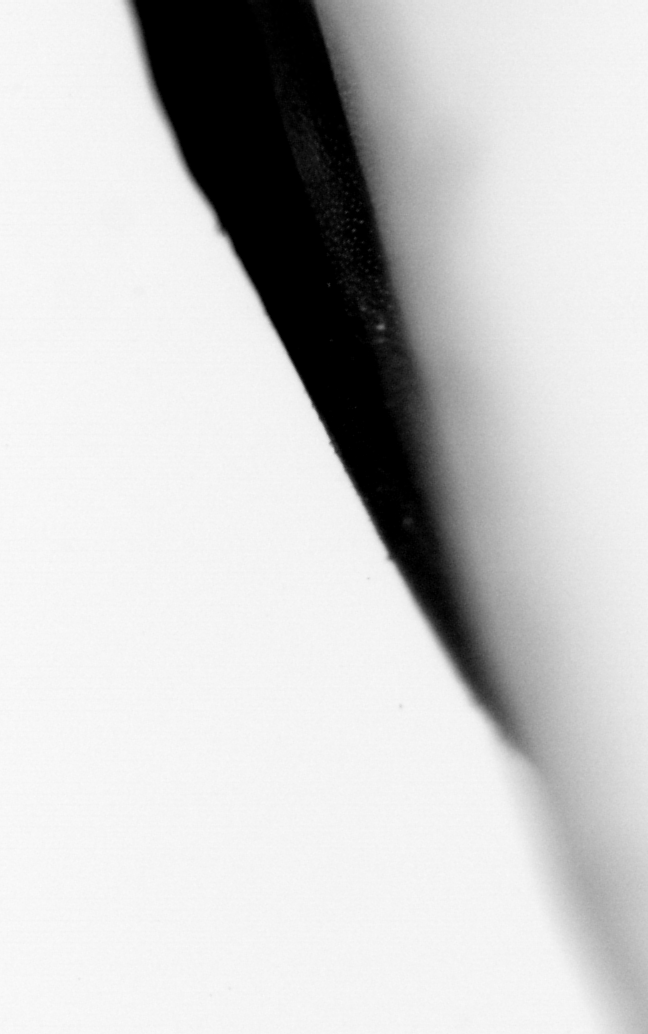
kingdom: Animalia
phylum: Chordata
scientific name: Chordata
